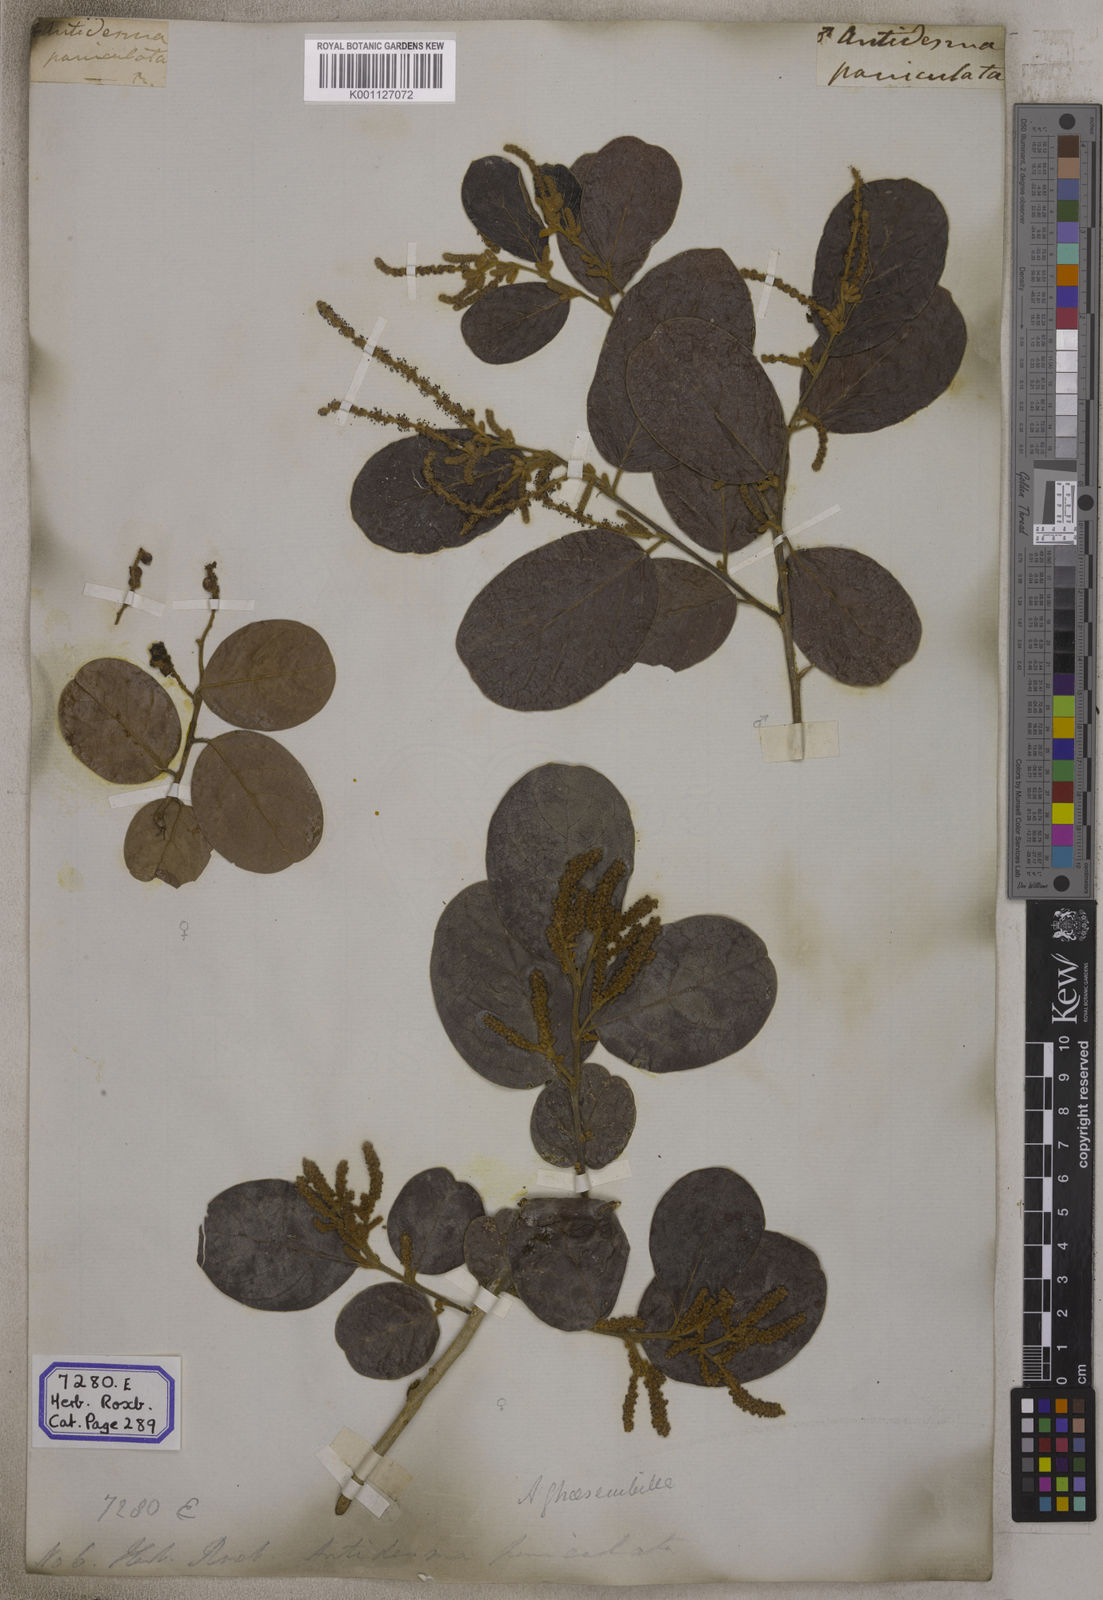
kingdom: Plantae
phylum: Tracheophyta
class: Magnoliopsida
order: Malpighiales
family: Phyllanthaceae
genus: Antidesma
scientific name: Antidesma
